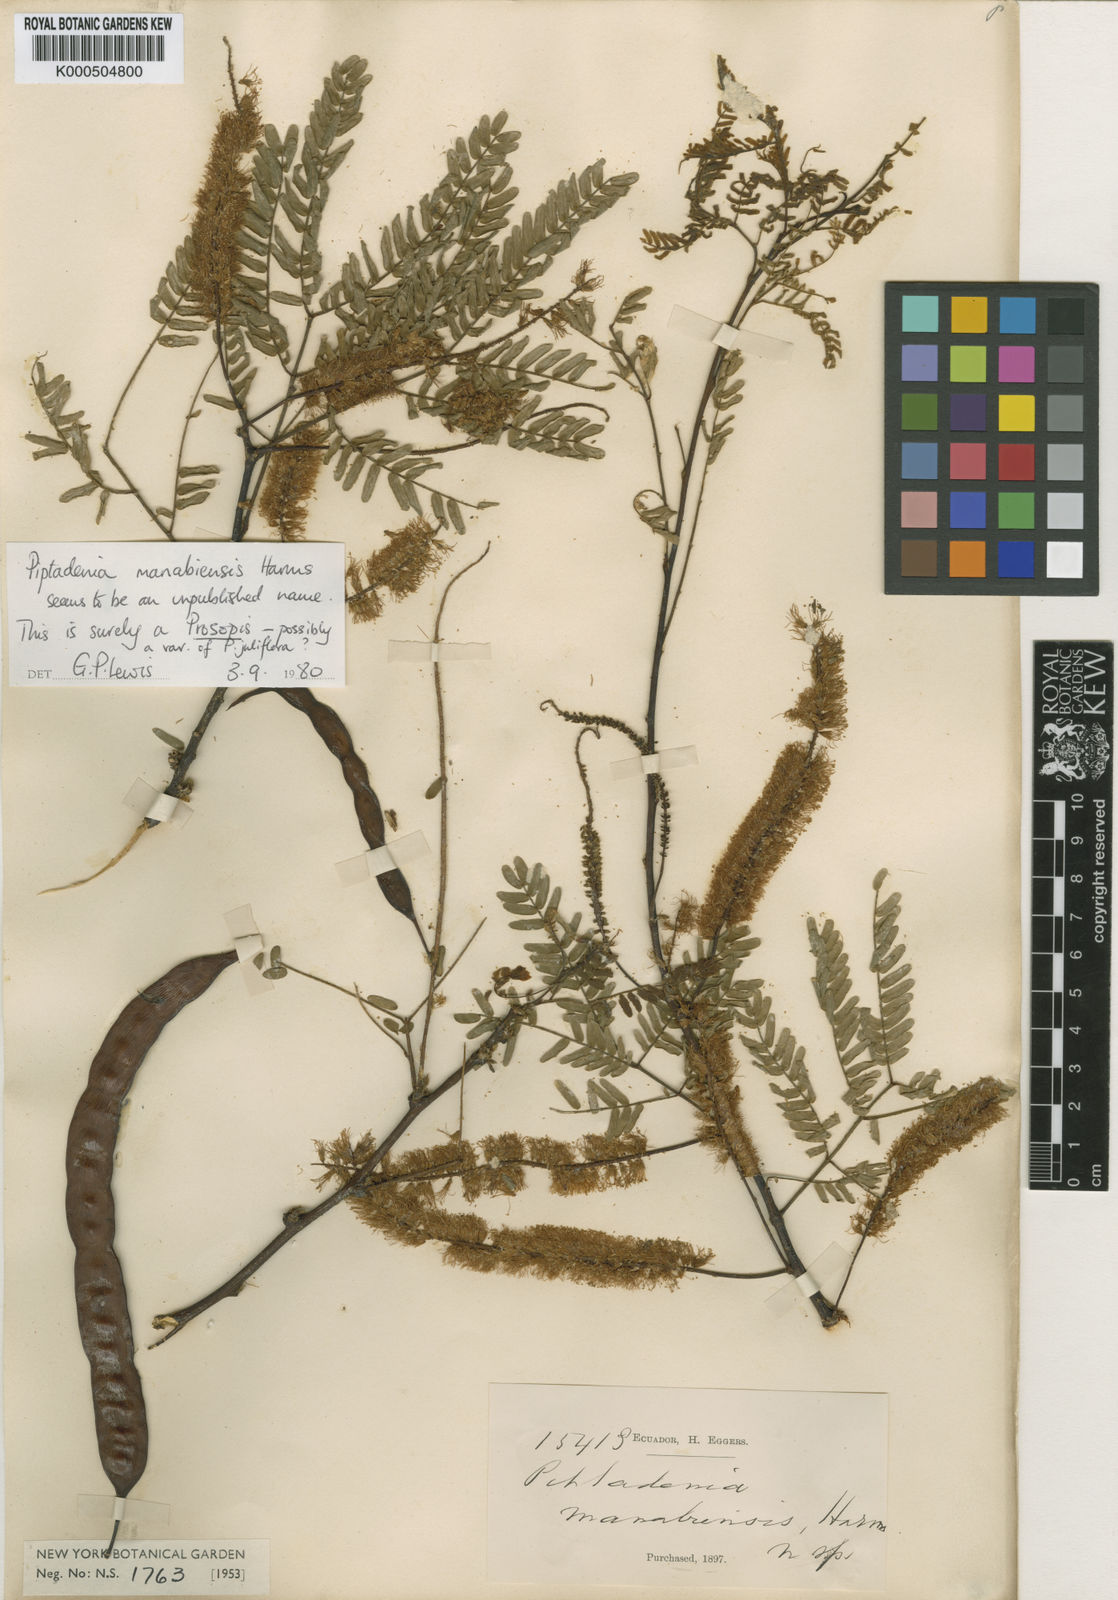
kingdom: Plantae
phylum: Tracheophyta
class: Magnoliopsida
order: Fabales
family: Fabaceae
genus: Prosopis
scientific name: Prosopis
